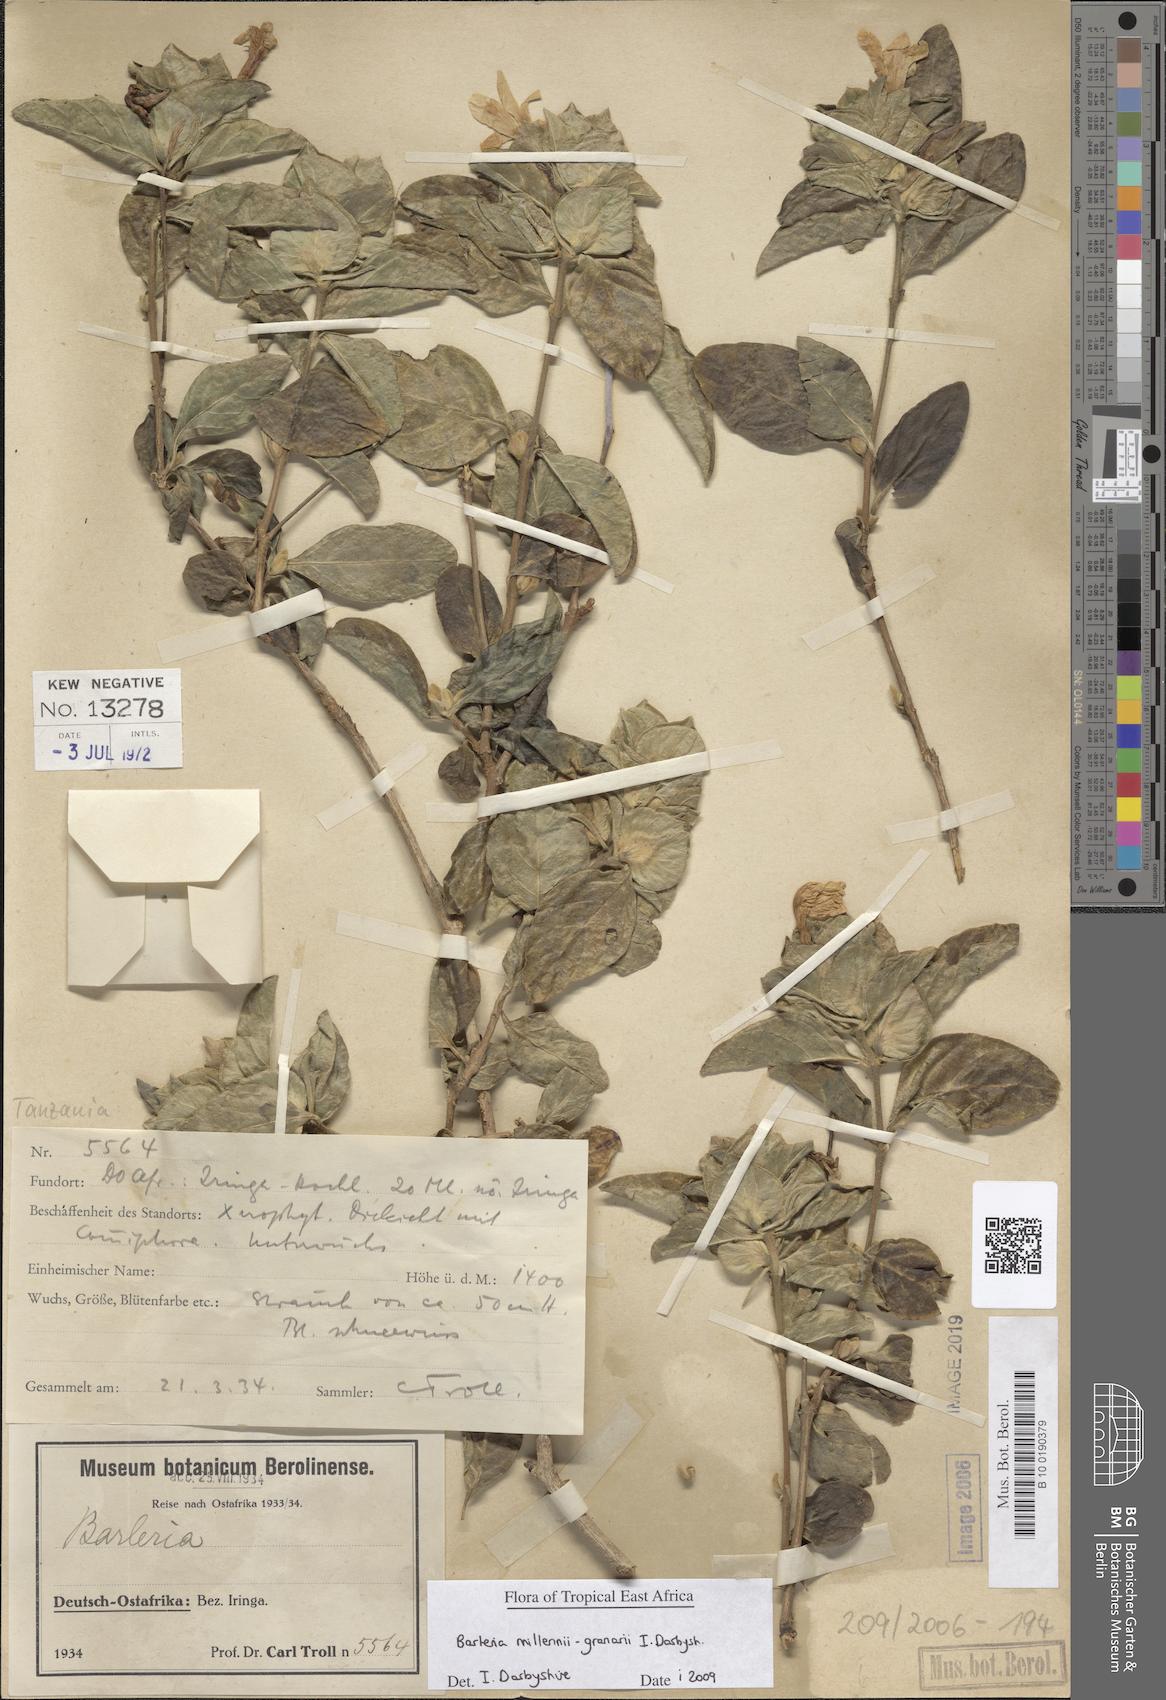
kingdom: Plantae
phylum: Tracheophyta
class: Magnoliopsida
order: Lamiales
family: Acanthaceae
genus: Barleria
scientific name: Barleria
